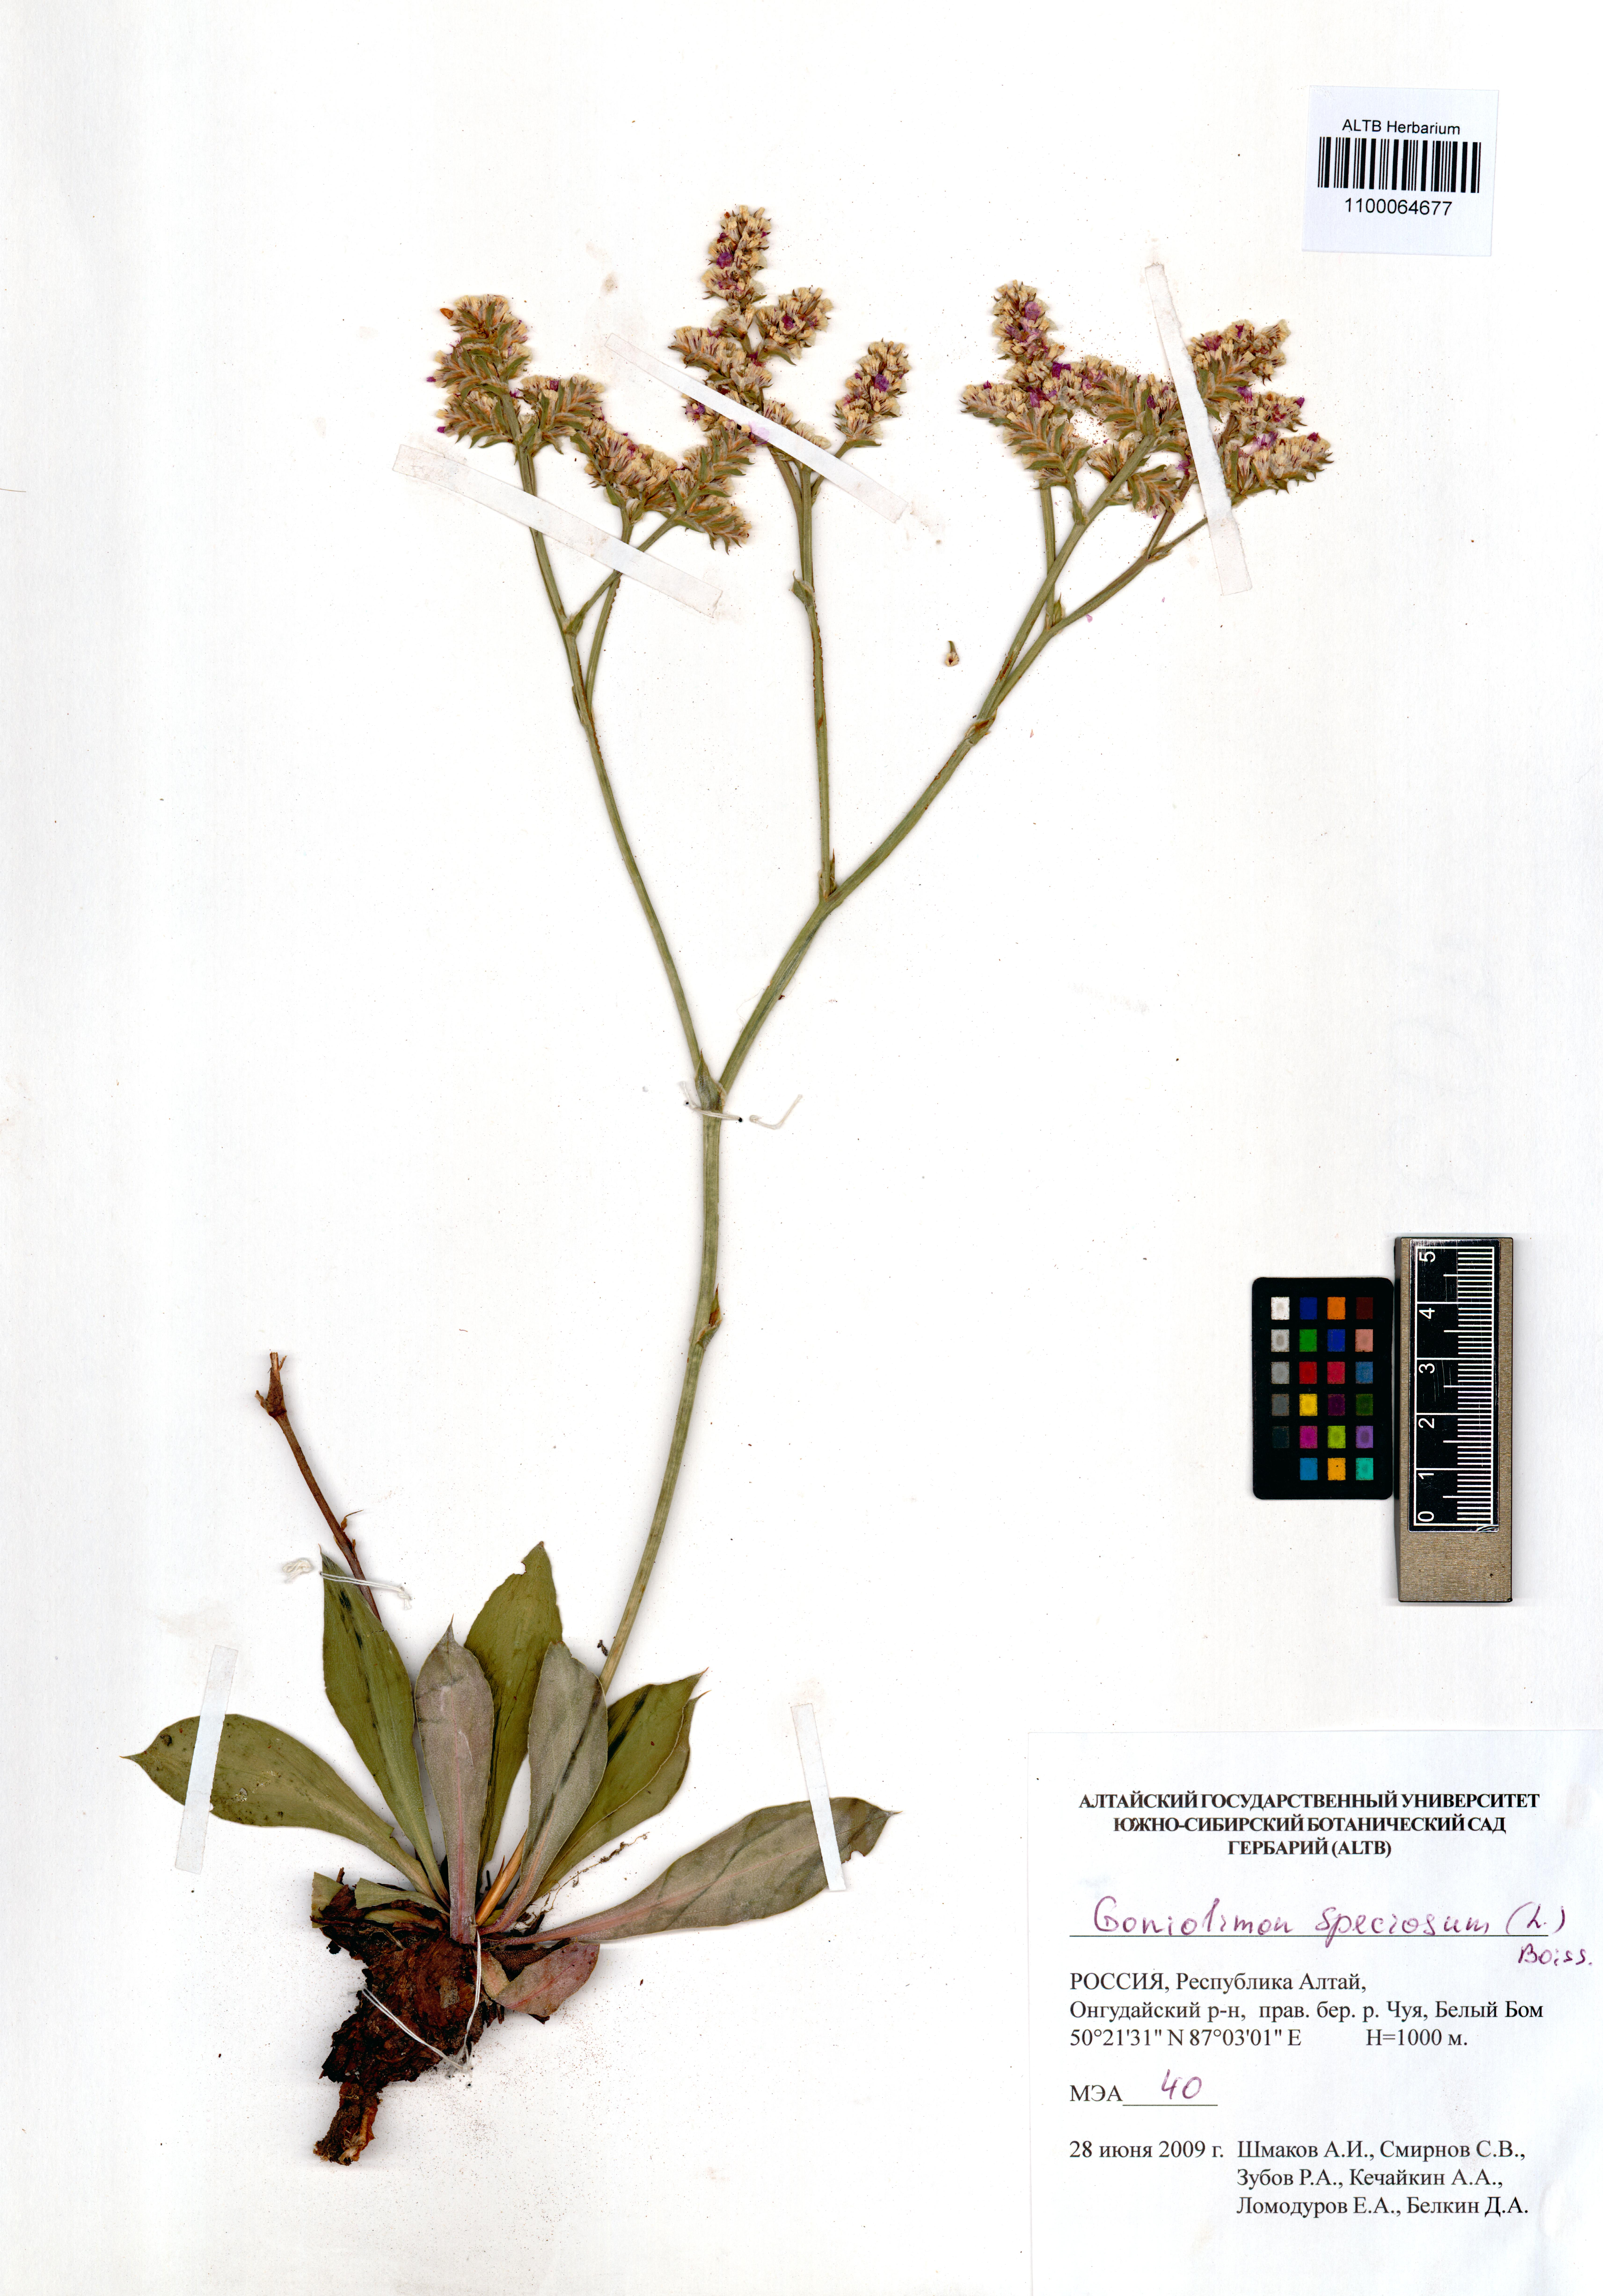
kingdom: Plantae
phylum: Tracheophyta
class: Magnoliopsida
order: Caryophyllales
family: Plumbaginaceae
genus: Goniolimon
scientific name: Goniolimon speciosum
